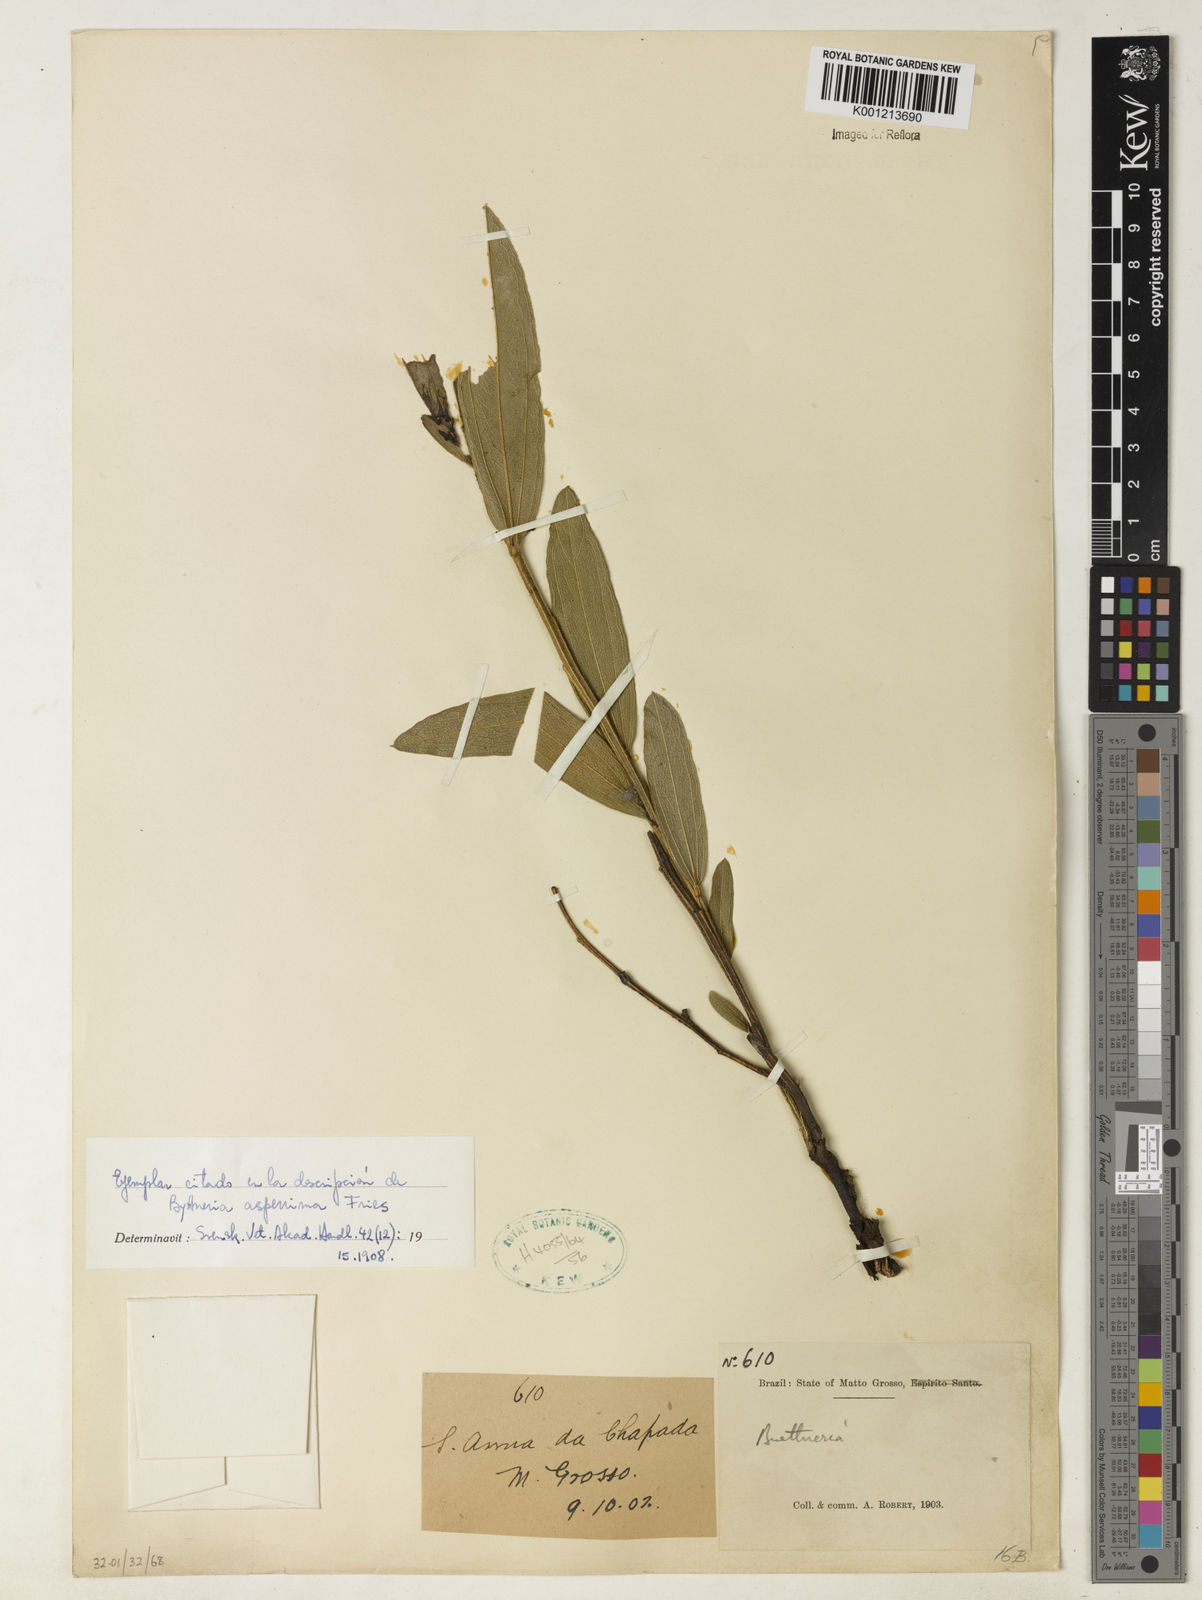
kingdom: Plantae
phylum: Tracheophyta
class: Magnoliopsida
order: Malvales
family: Malvaceae
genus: Byttneria
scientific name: Byttneria oblongata
